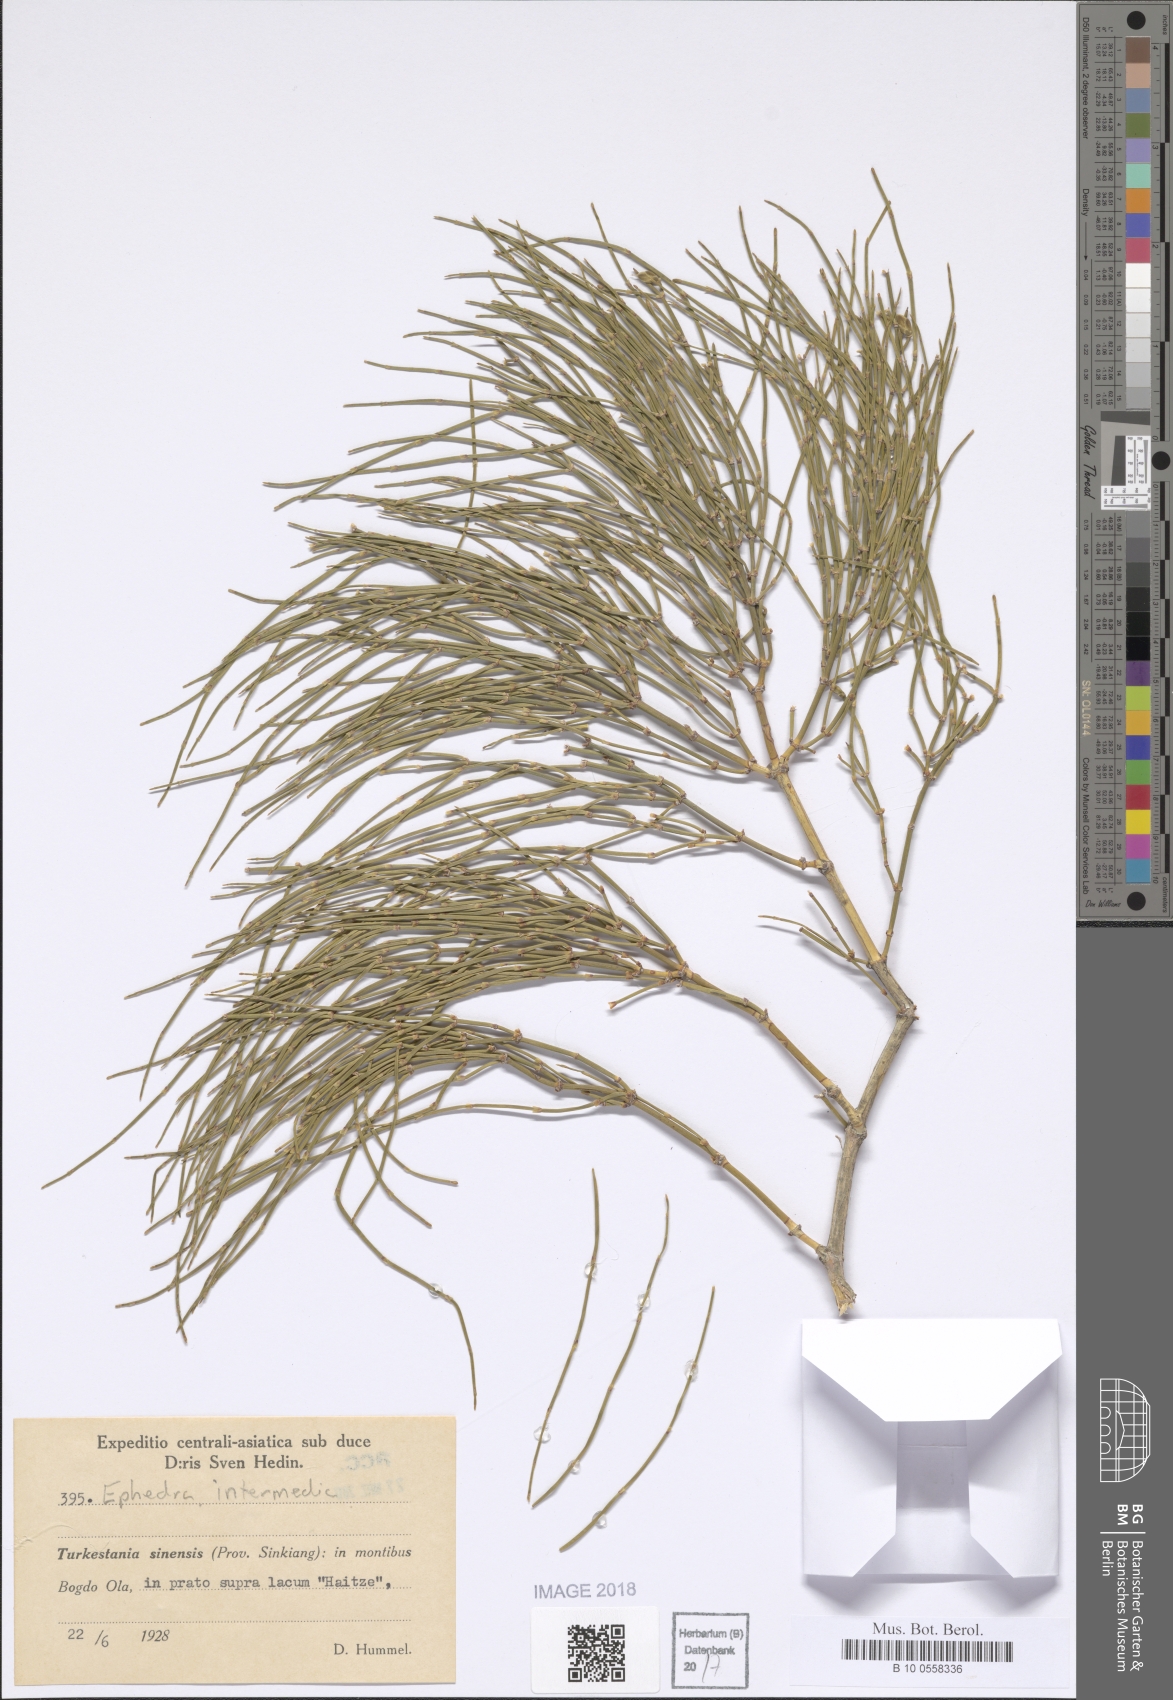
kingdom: Plantae
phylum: Tracheophyta
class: Gnetopsida
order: Ephedrales
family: Ephedraceae
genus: Ephedra
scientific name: Ephedra intermedia
